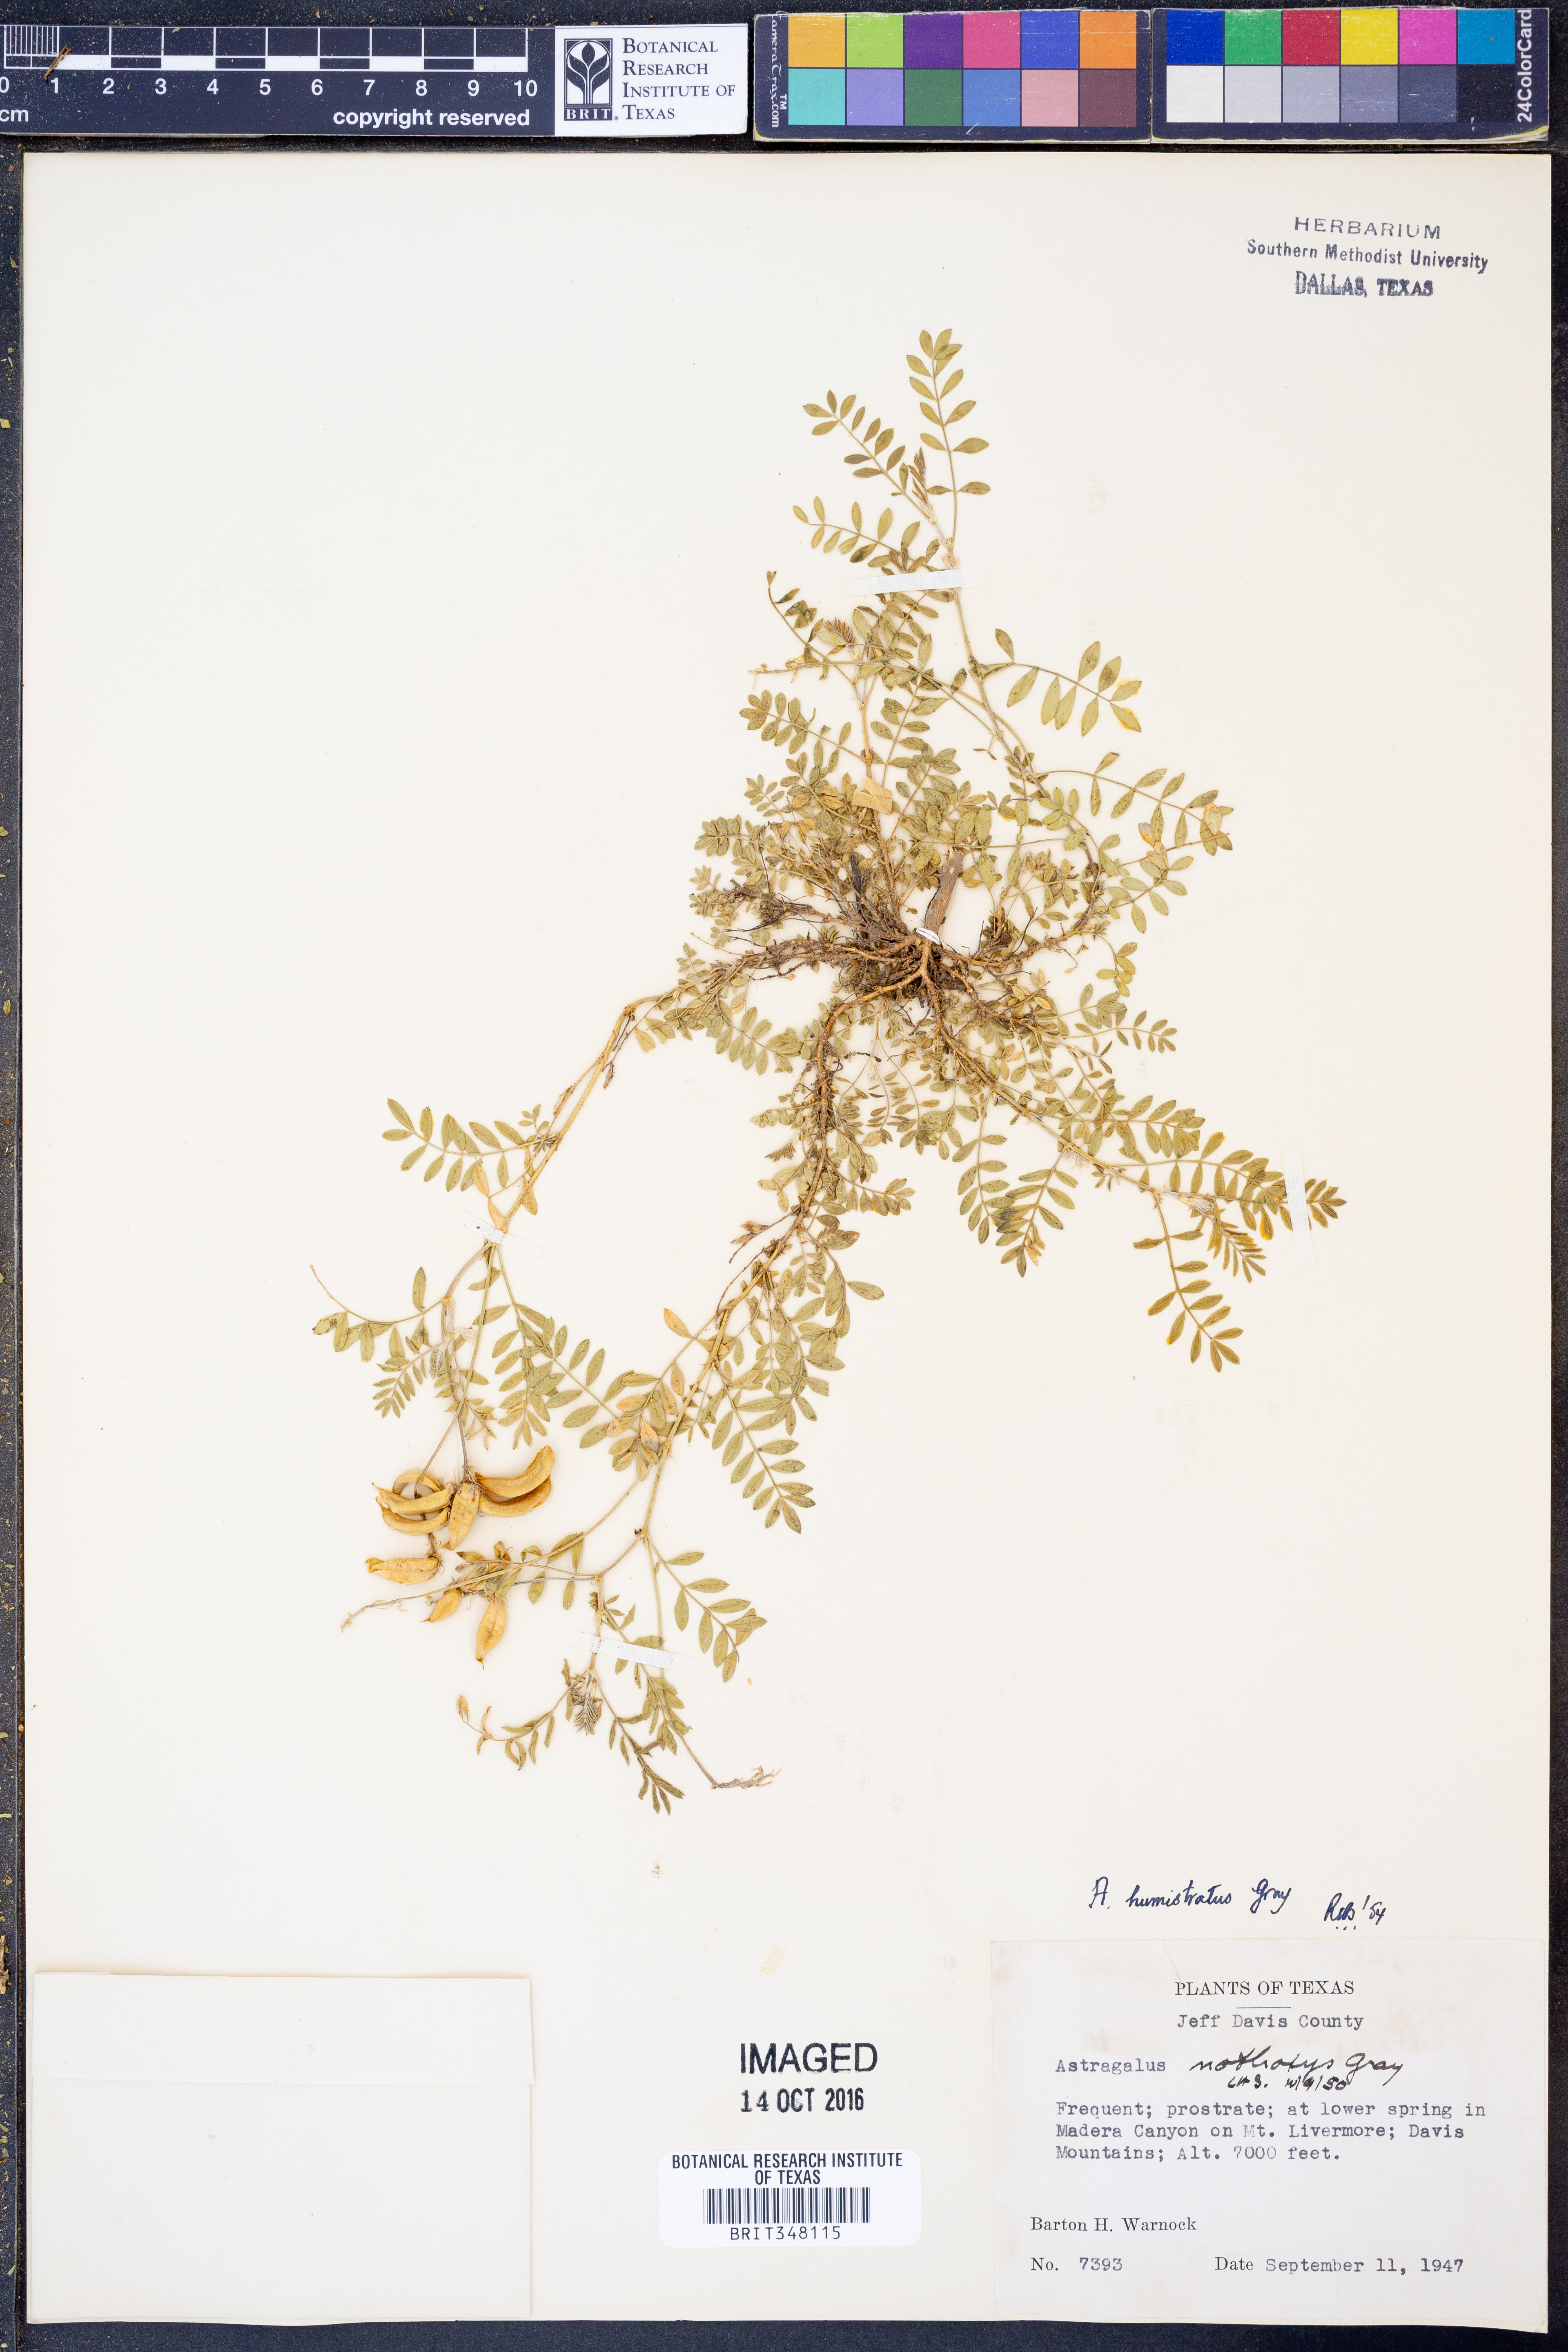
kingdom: Plantae
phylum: Tracheophyta
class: Magnoliopsida
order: Fabales
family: Fabaceae
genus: Astragalus
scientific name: Astragalus humistratus
